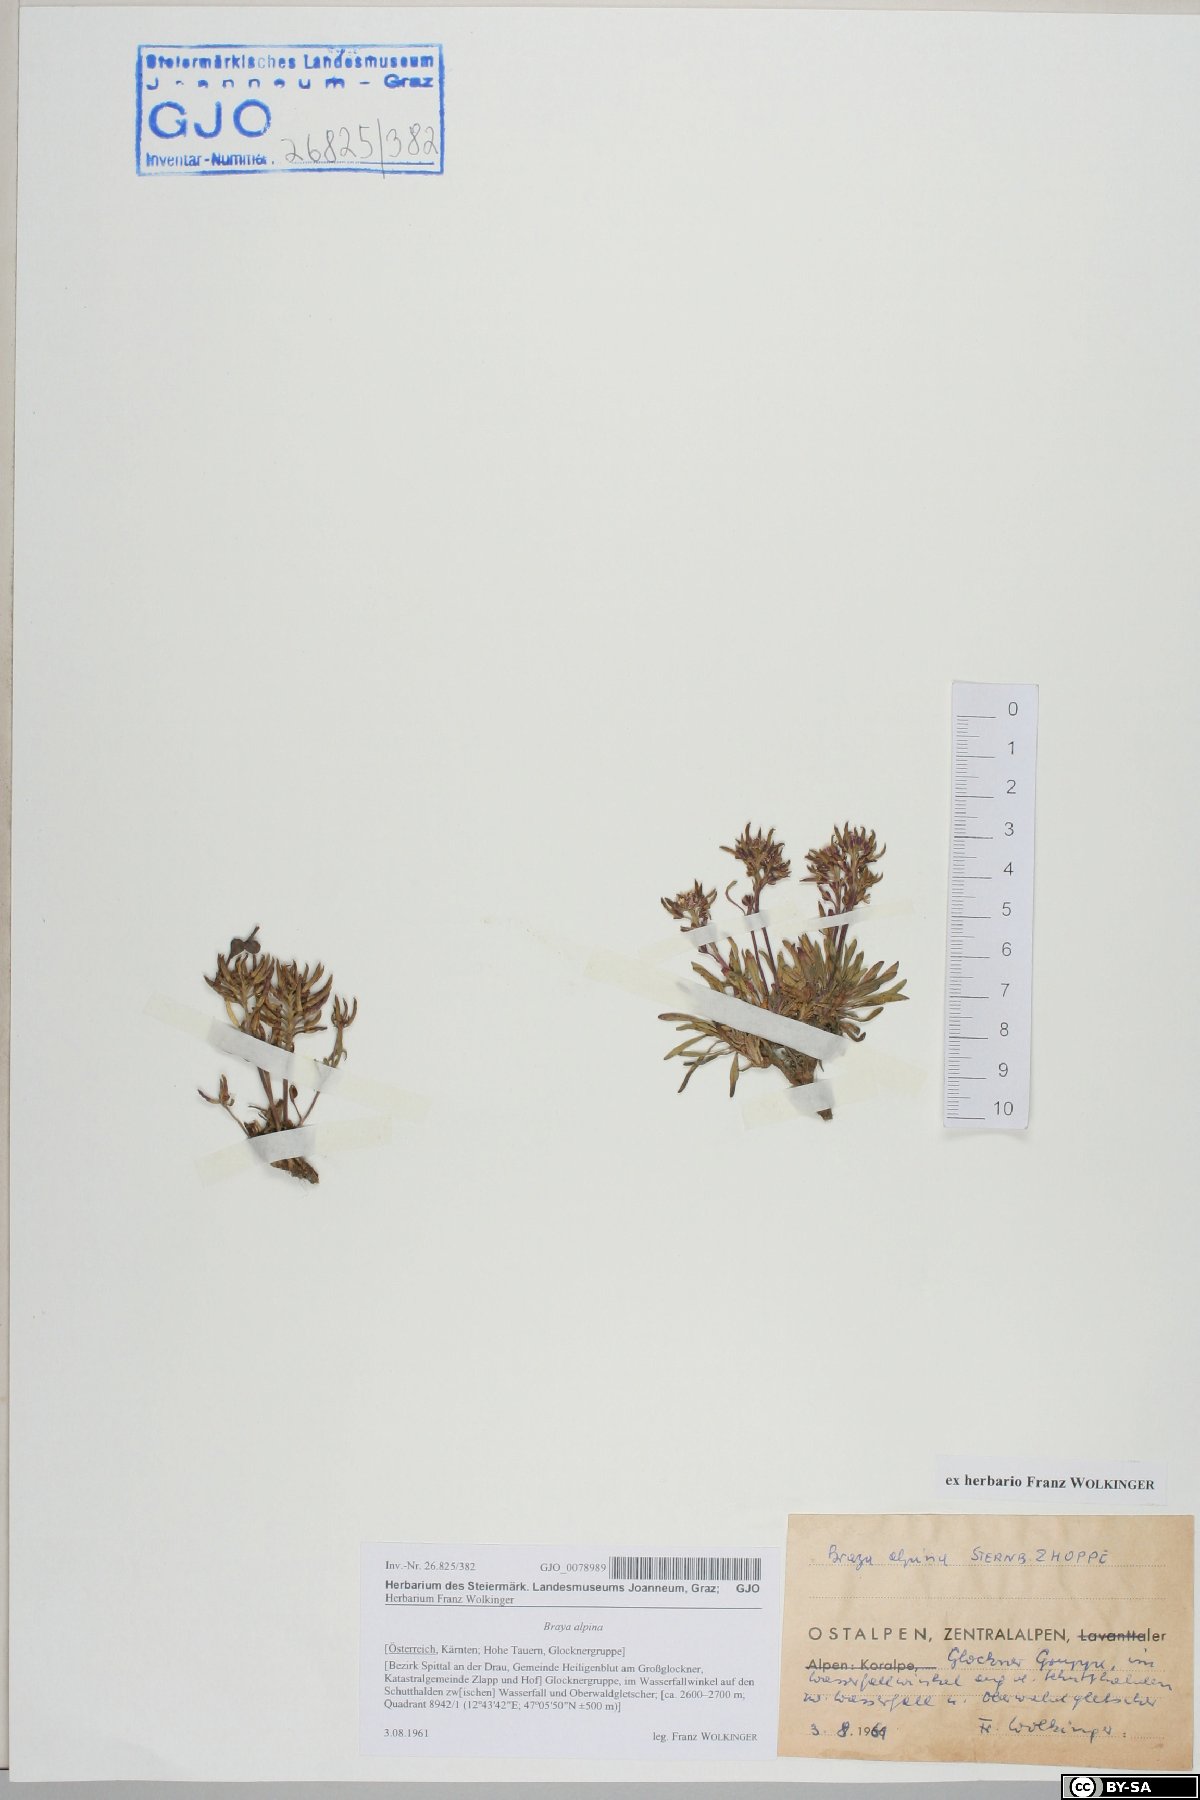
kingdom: Plantae
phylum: Tracheophyta
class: Magnoliopsida
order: Brassicales
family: Brassicaceae
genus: Braya
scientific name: Braya alpina
